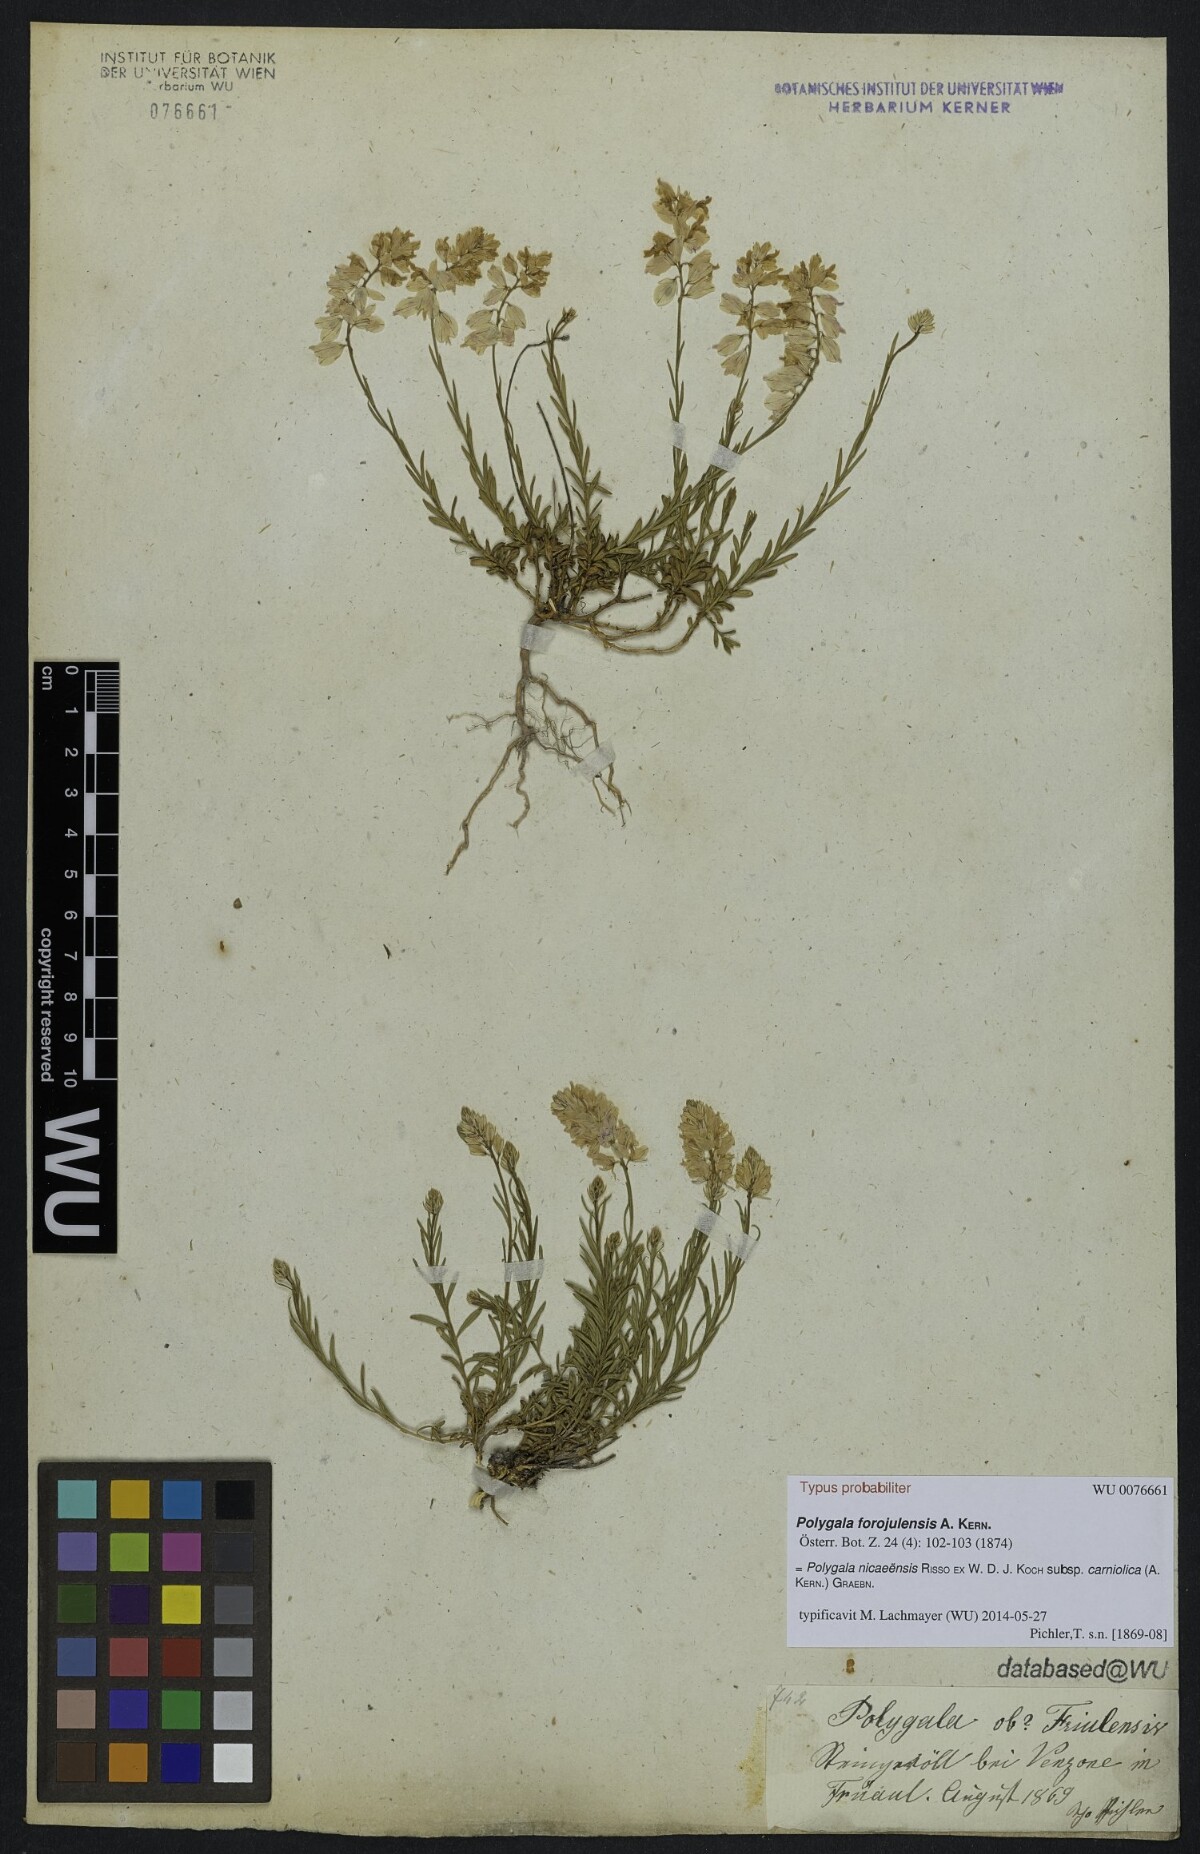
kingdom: Plantae
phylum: Tracheophyta
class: Magnoliopsida
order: Fabales
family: Polygalaceae
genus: Polygala
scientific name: Polygala forojulensis
